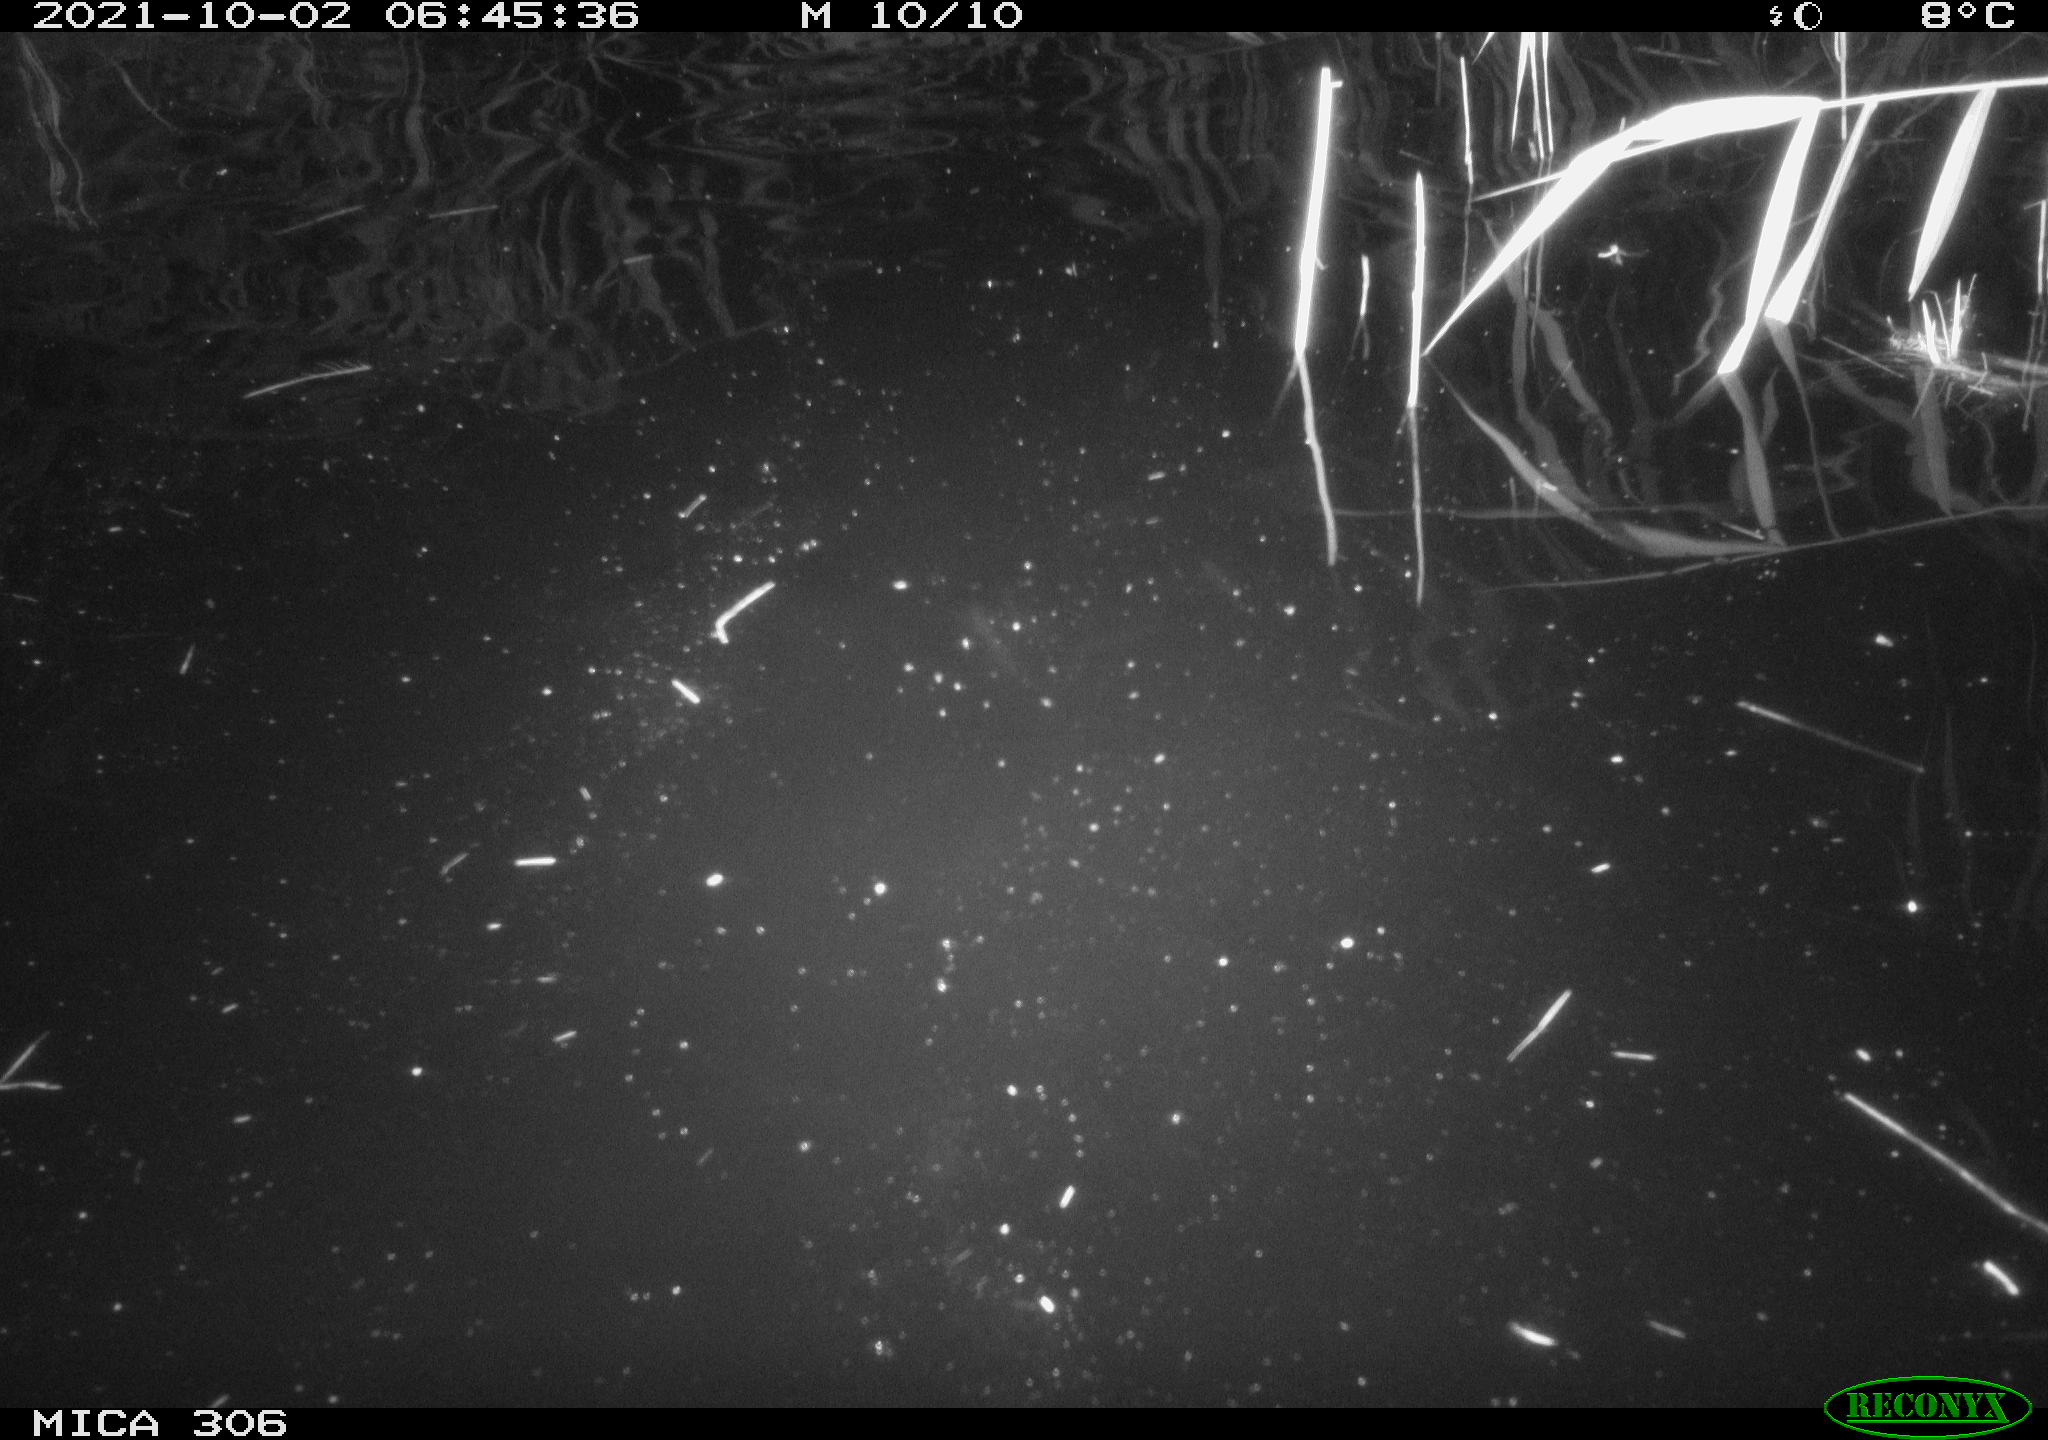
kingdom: Animalia
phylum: Chordata
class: Mammalia
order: Rodentia
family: Cricetidae
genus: Ondatra
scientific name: Ondatra zibethicus
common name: Muskrat
